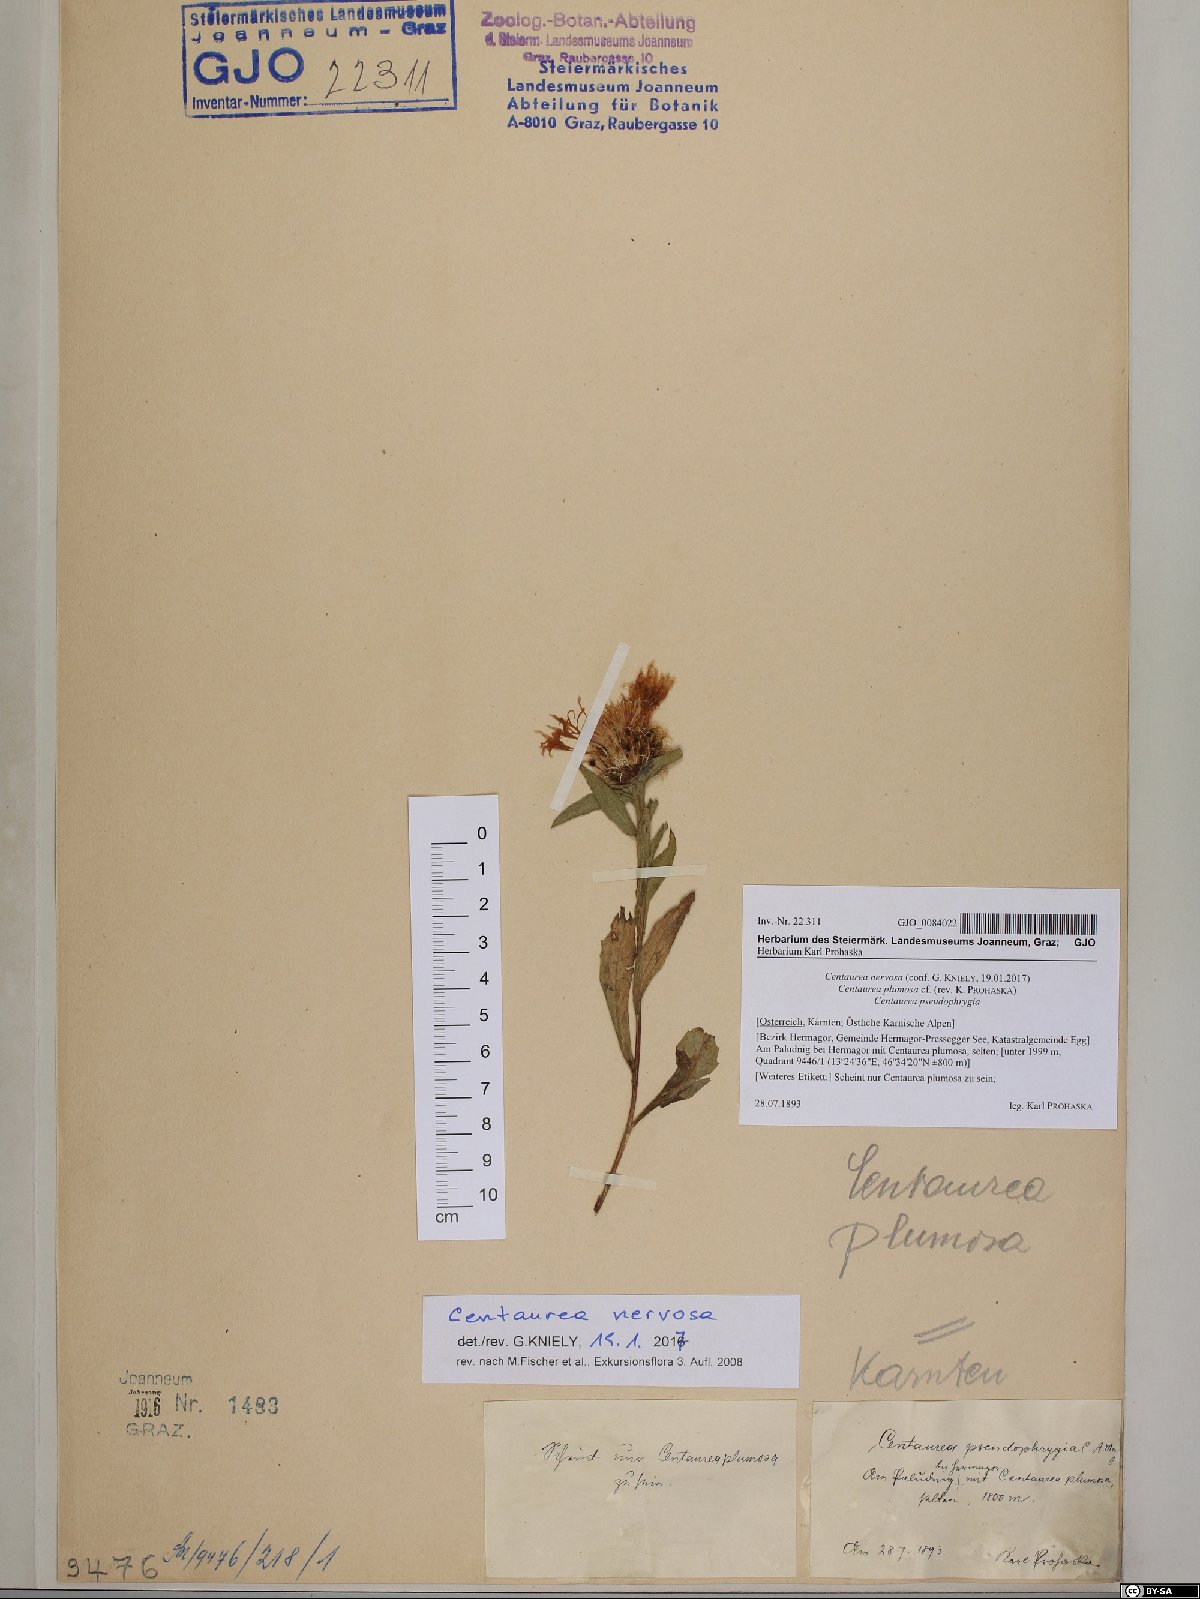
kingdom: Plantae
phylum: Tracheophyta
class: Magnoliopsida
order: Asterales
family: Asteraceae
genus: Centaurea
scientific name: Centaurea nervosa
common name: Singleflower knapweed
